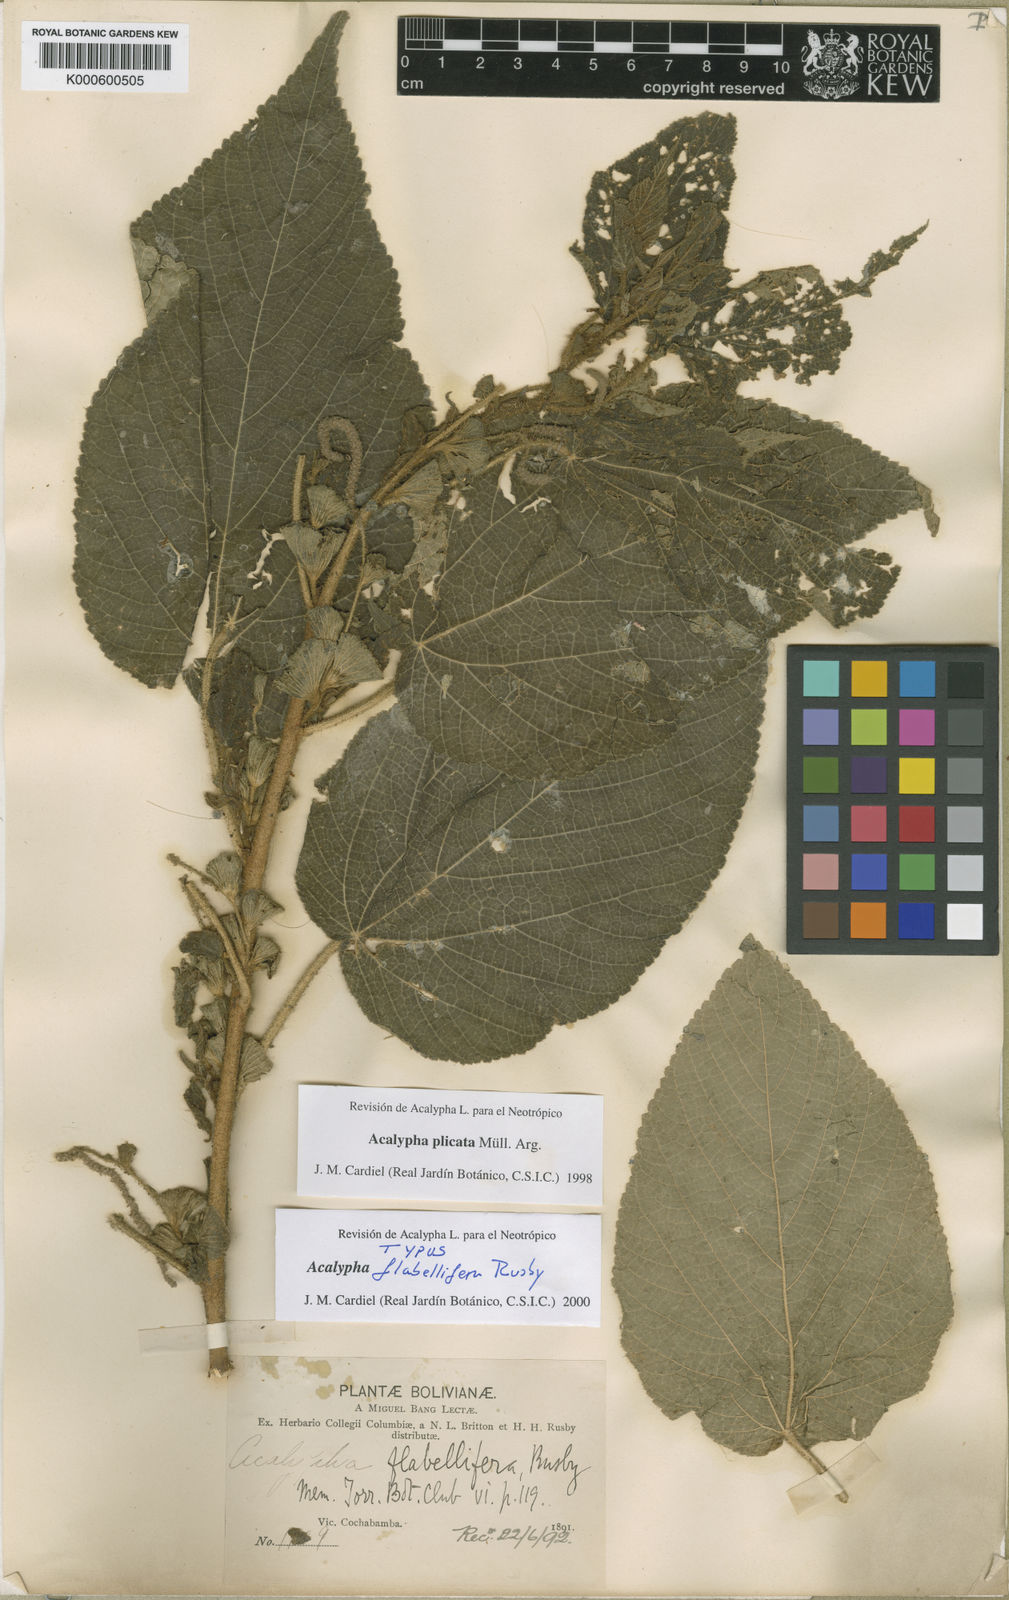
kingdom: Plantae
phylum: Tracheophyta
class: Magnoliopsida
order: Malpighiales
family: Euphorbiaceae
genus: Acalypha
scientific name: Acalypha
